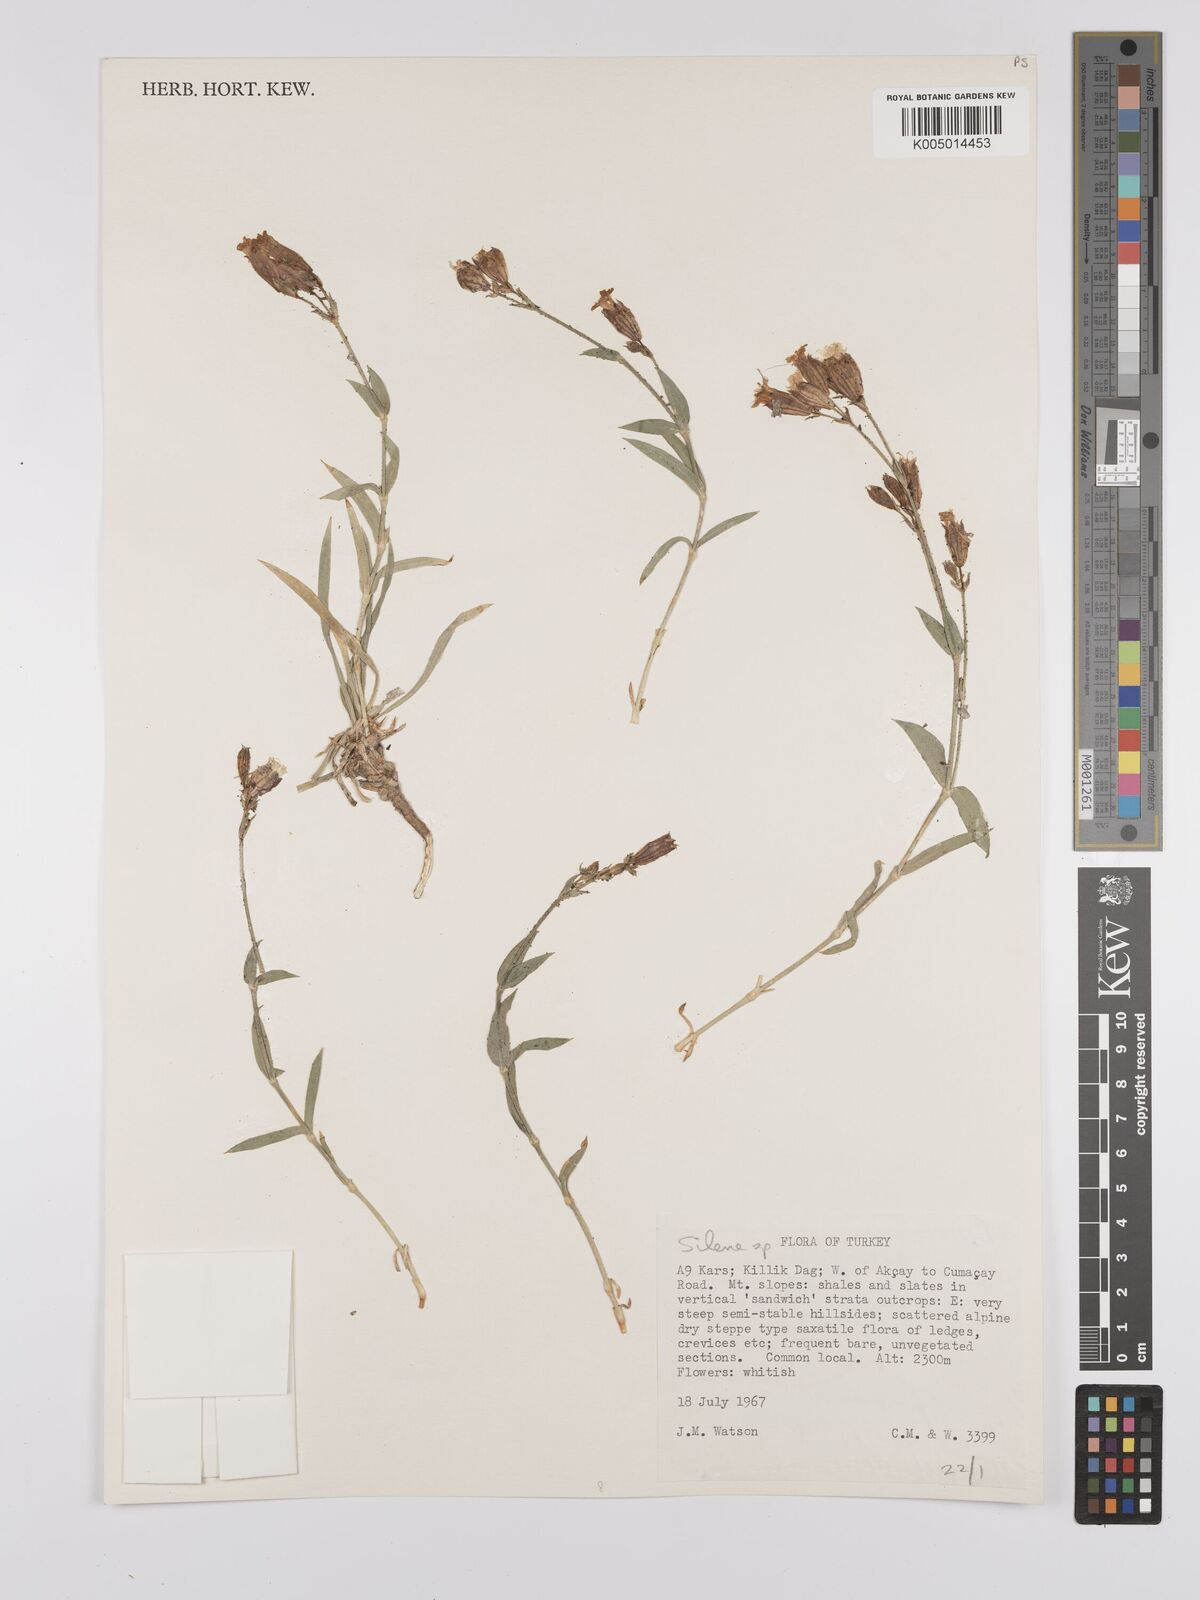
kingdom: Plantae
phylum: Tracheophyta
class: Magnoliopsida
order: Caryophyllales
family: Caryophyllaceae
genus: Silene
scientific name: Silene
